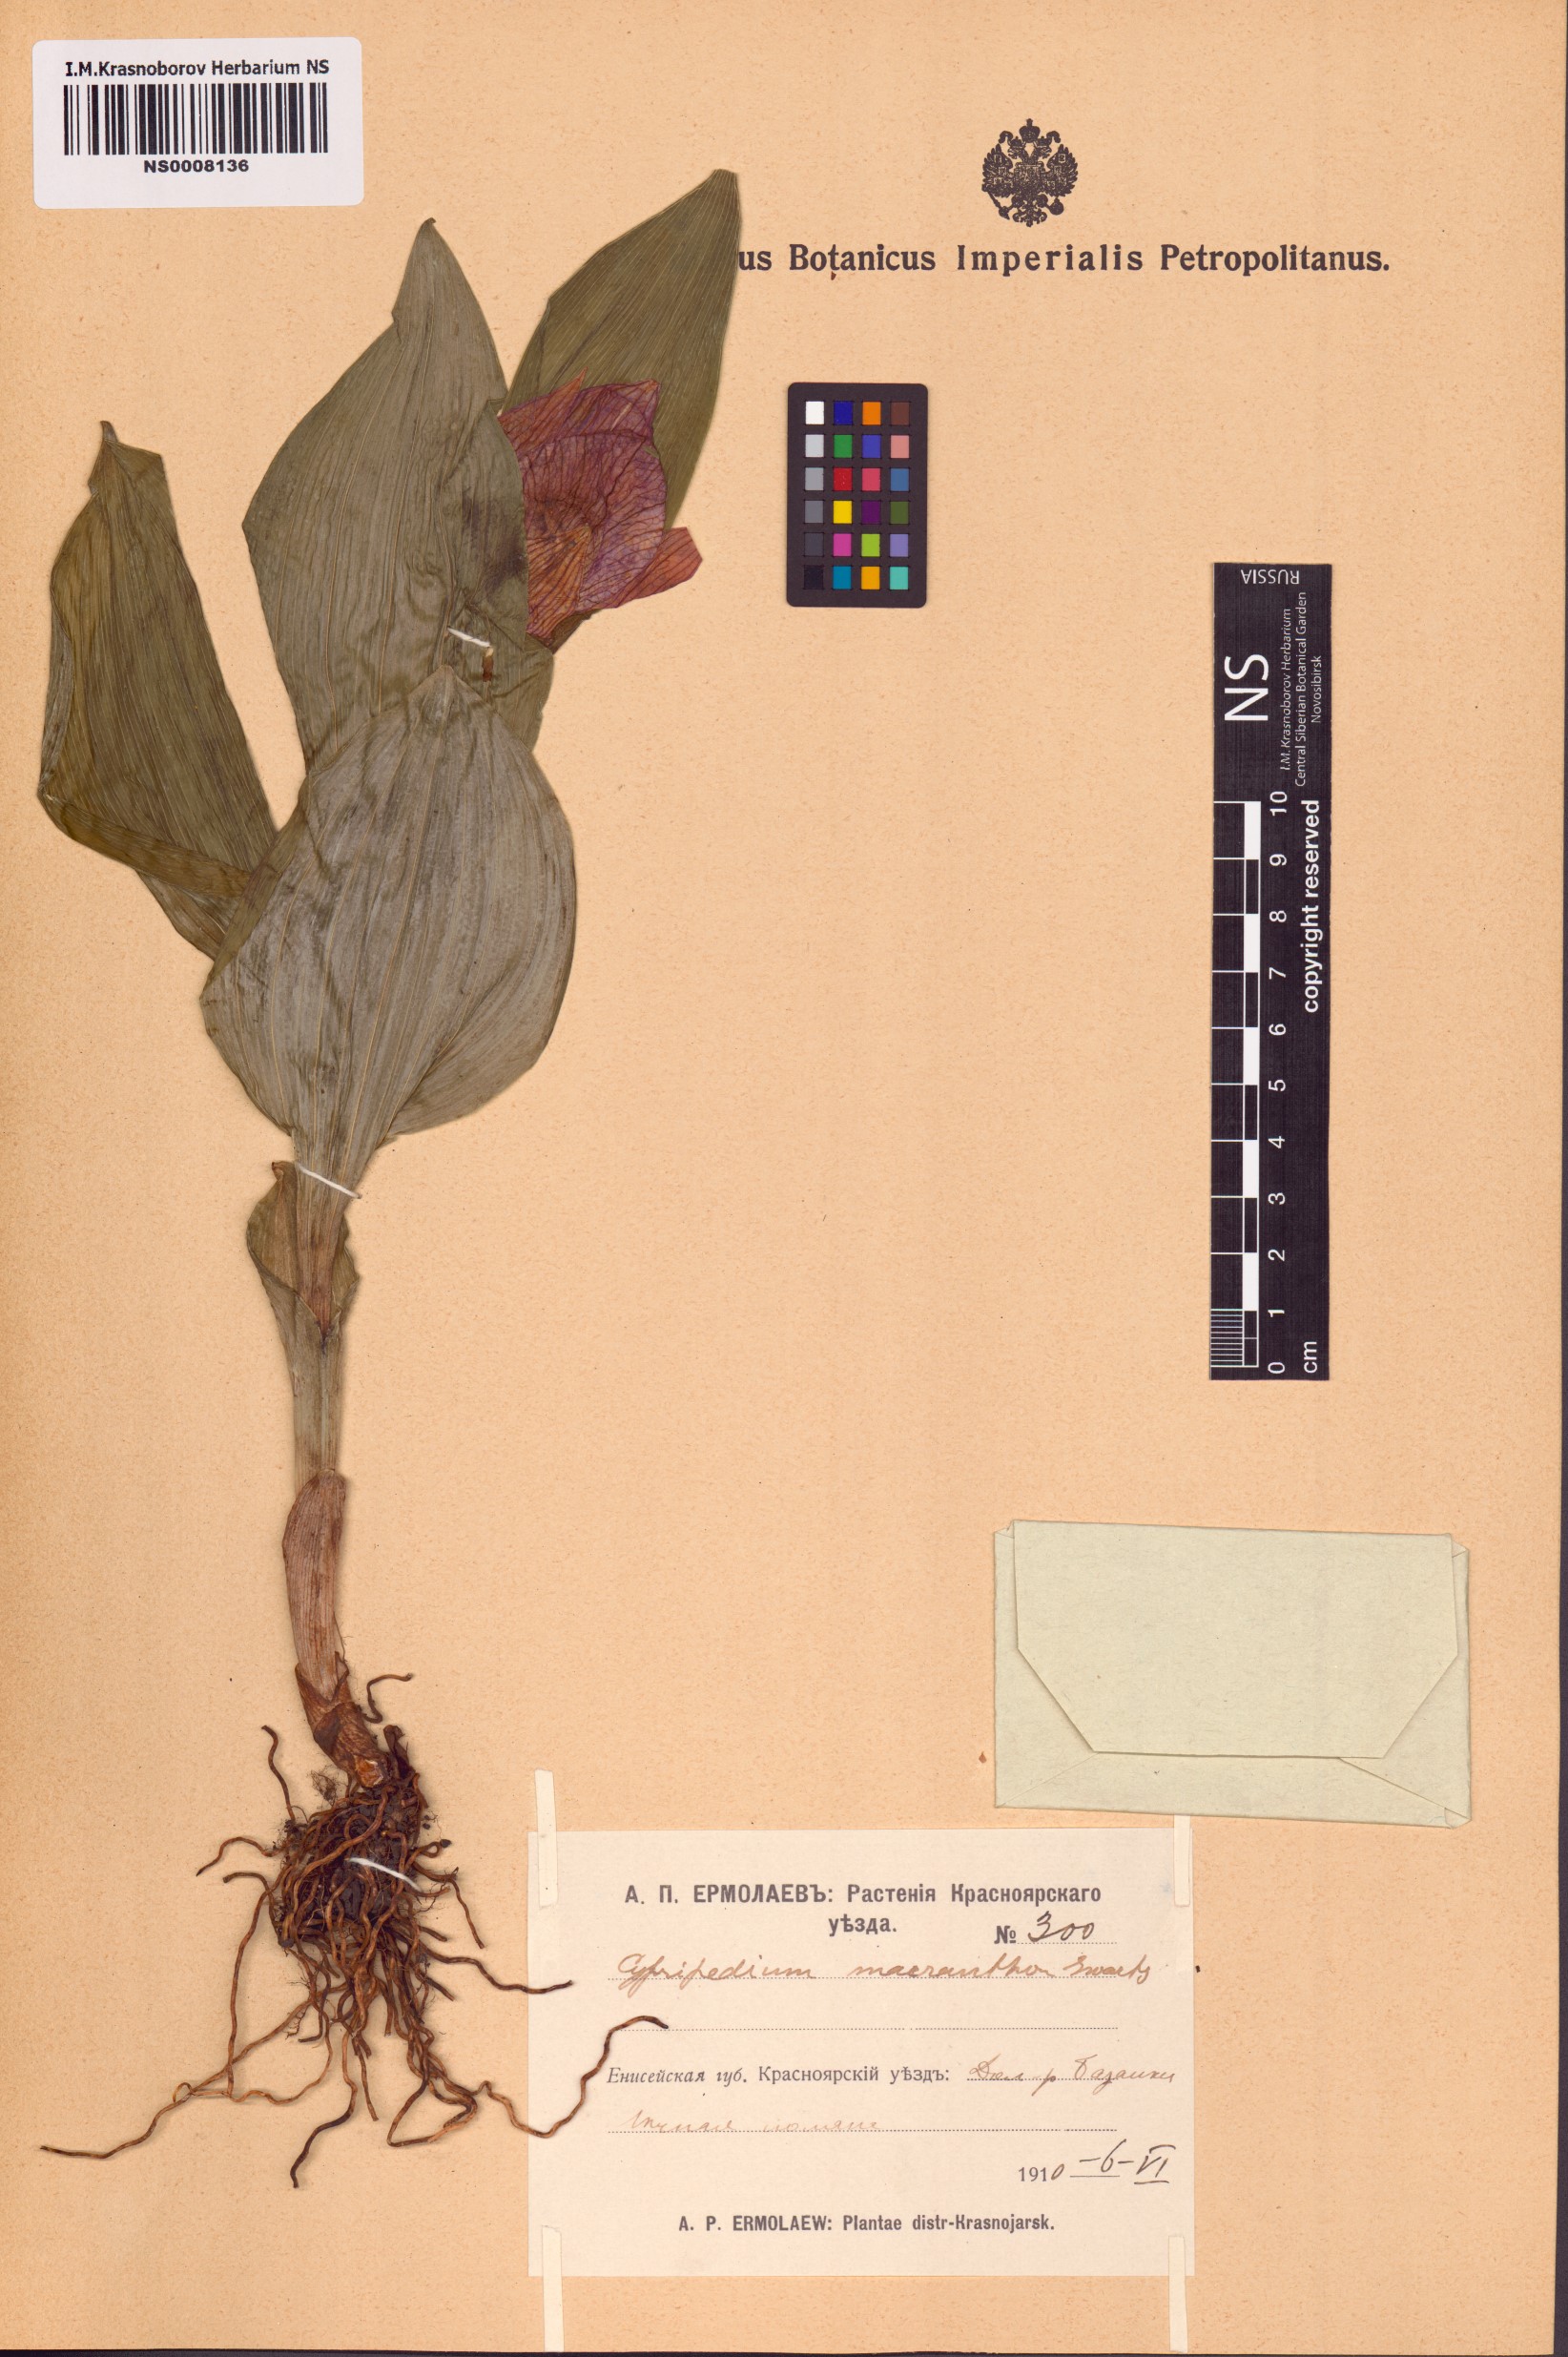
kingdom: Plantae
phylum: Tracheophyta
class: Liliopsida
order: Asparagales
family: Orchidaceae
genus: Cypripedium
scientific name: Cypripedium macranthos
